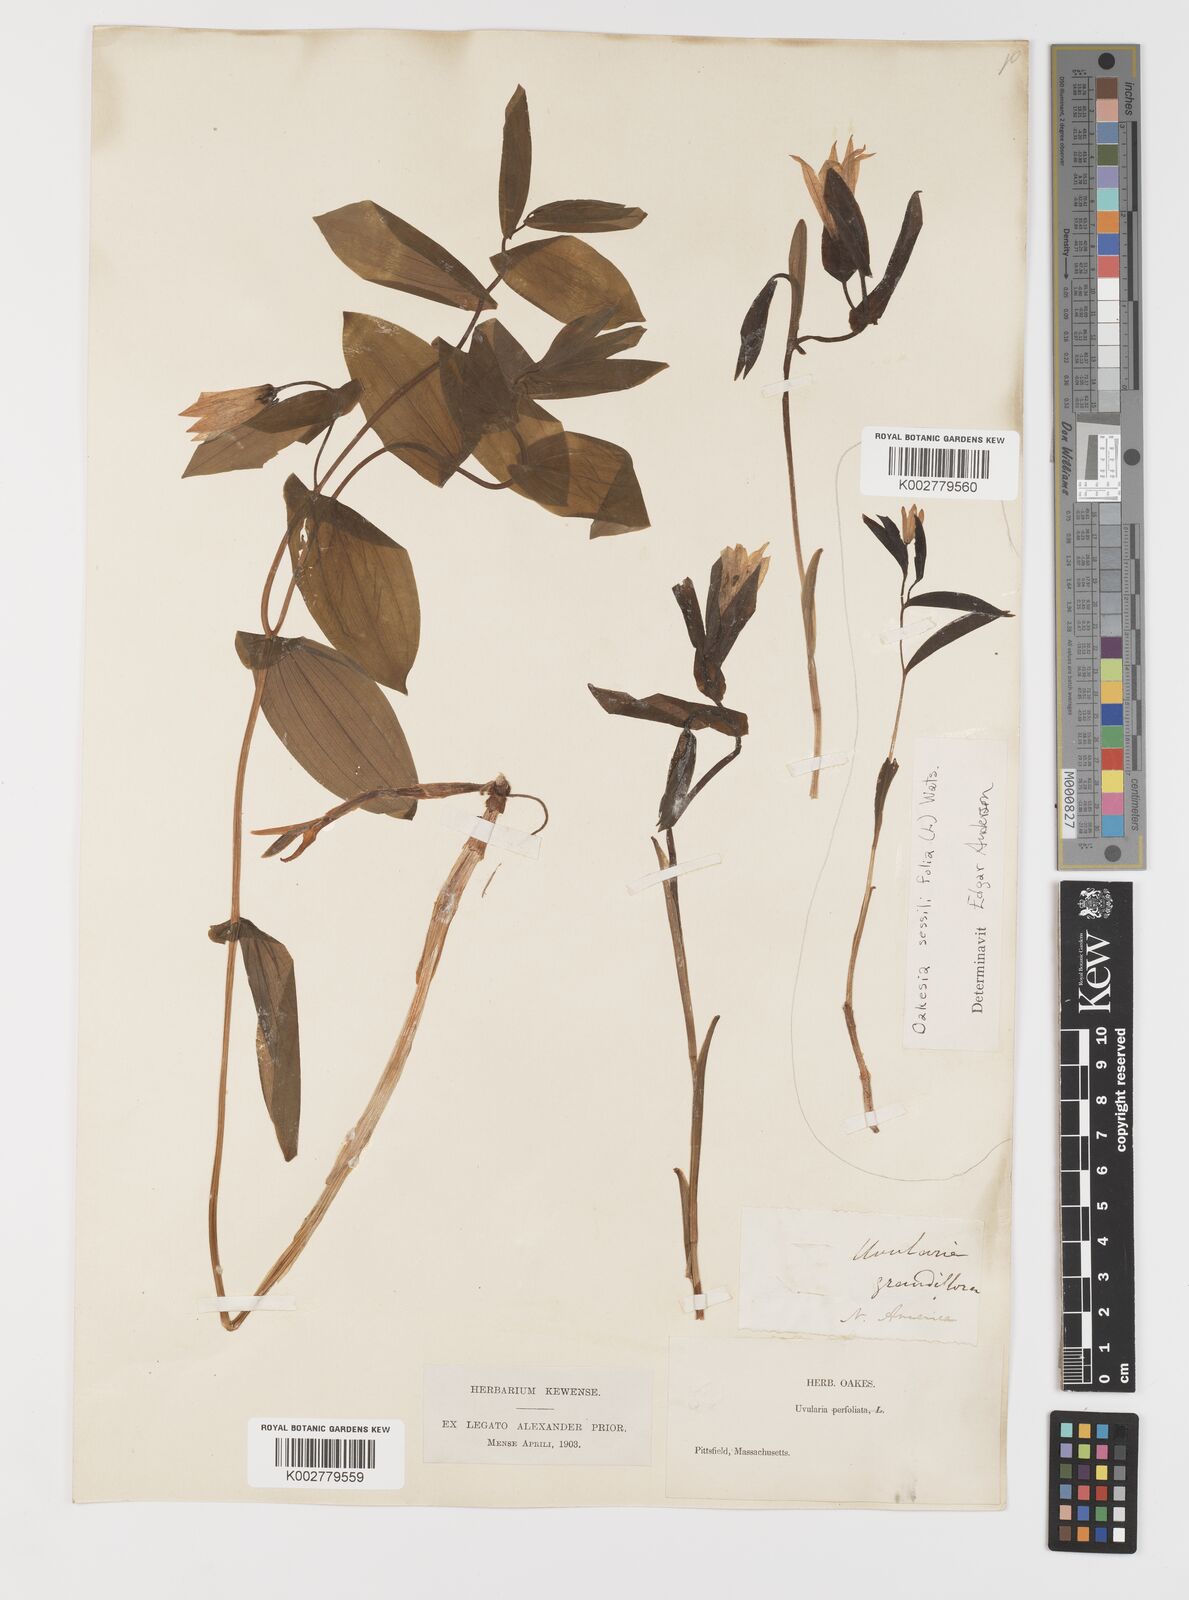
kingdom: Plantae
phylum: Tracheophyta
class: Liliopsida
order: Liliales
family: Colchicaceae
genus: Uvularia
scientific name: Uvularia grandiflora
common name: Bellwort
